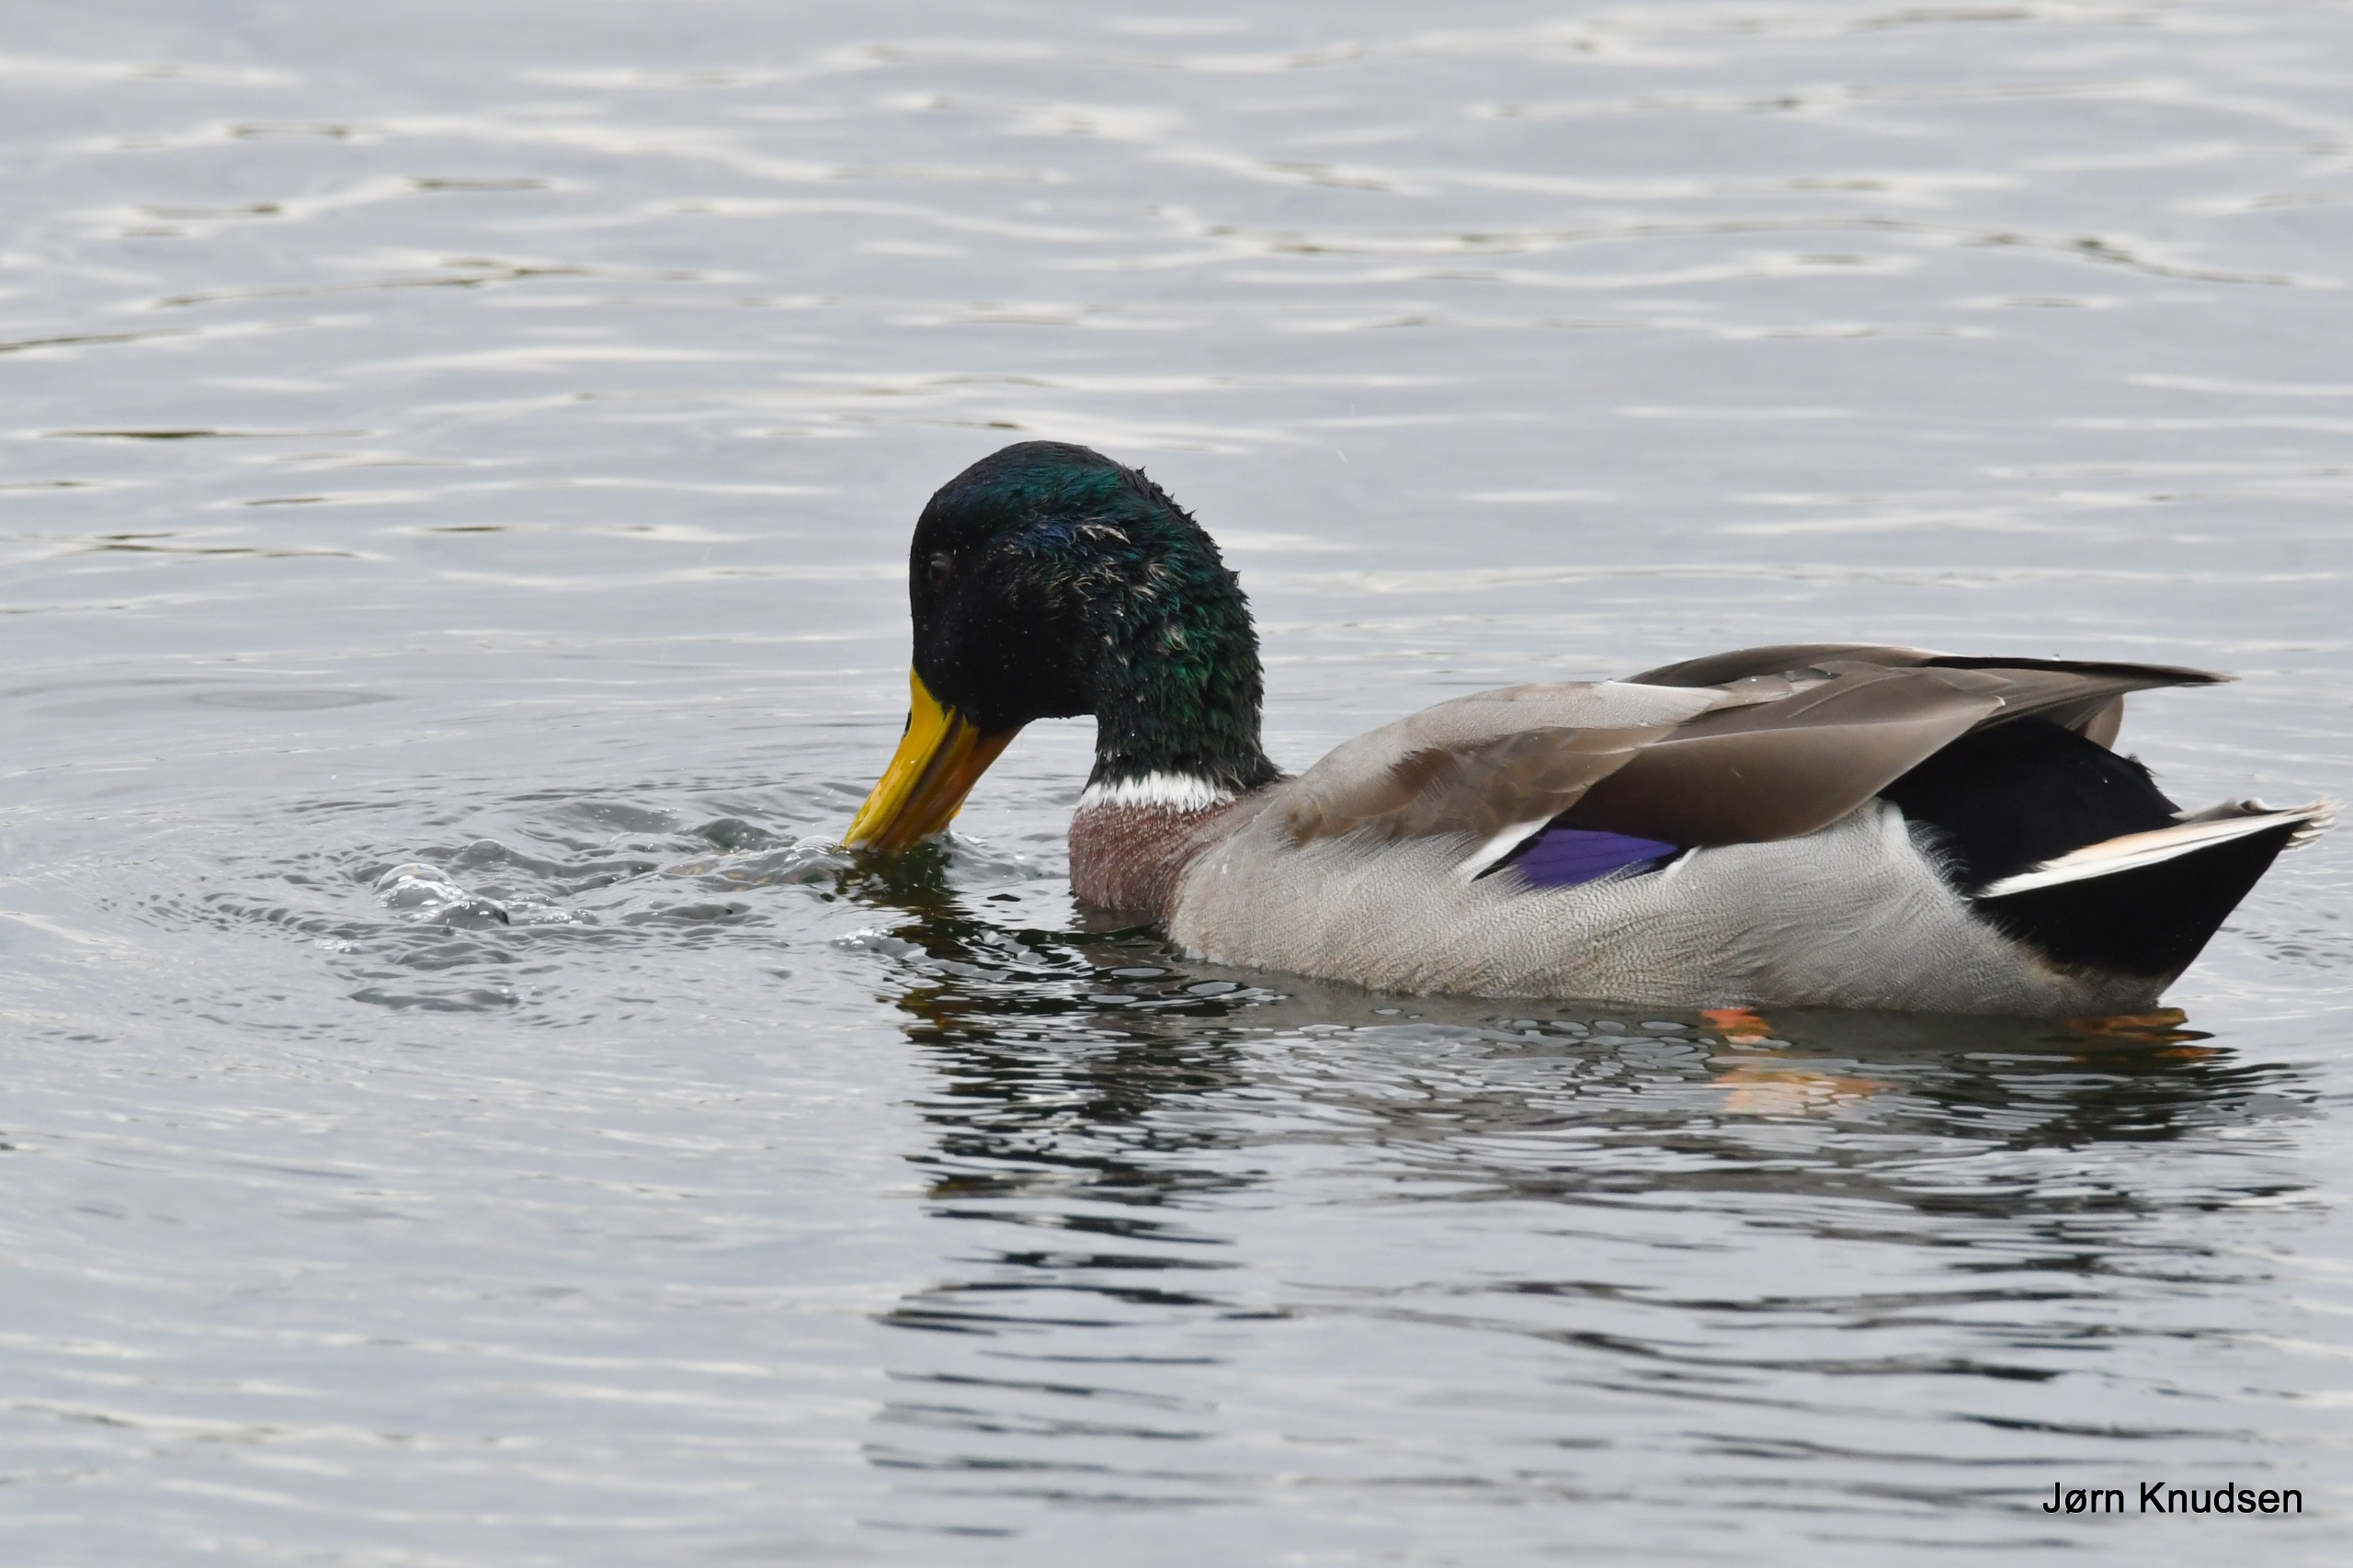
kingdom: Animalia
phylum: Chordata
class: Aves
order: Anseriformes
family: Anatidae
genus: Anas
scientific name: Anas platyrhynchos
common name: Gråand
